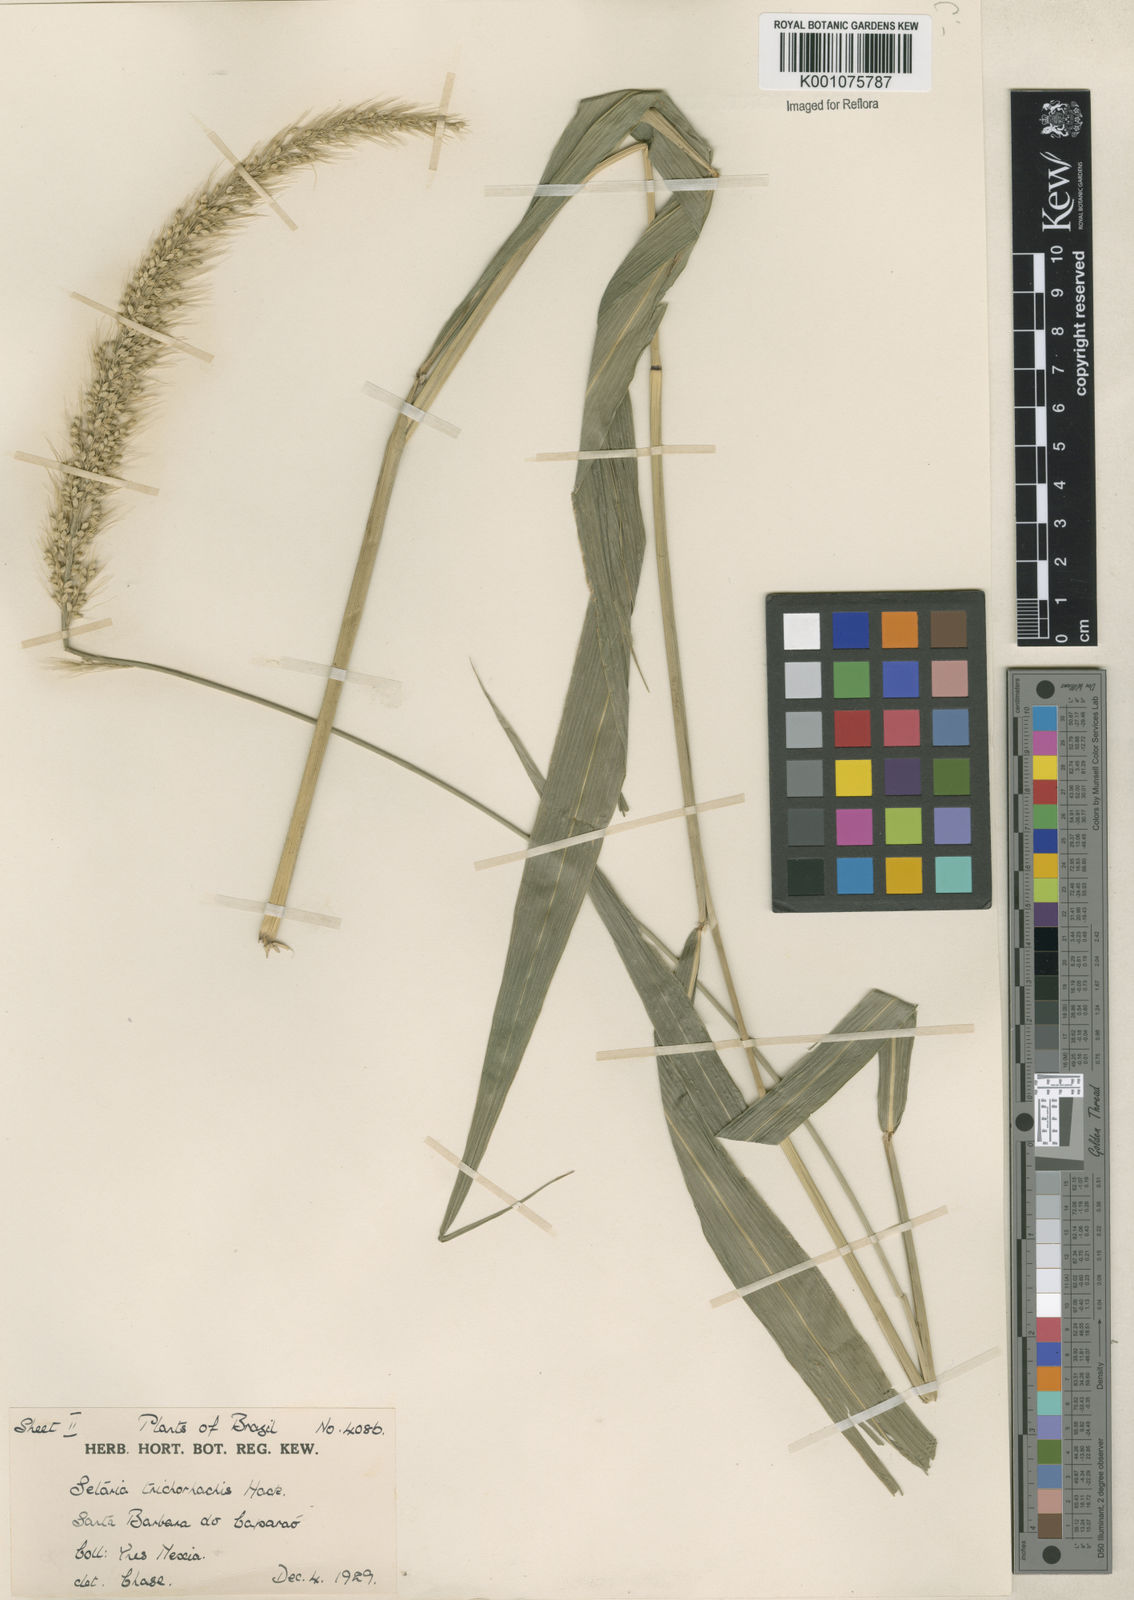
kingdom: Plantae
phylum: Tracheophyta
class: Liliopsida
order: Poales
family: Poaceae
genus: Setaria
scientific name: Setaria vulpiseta
